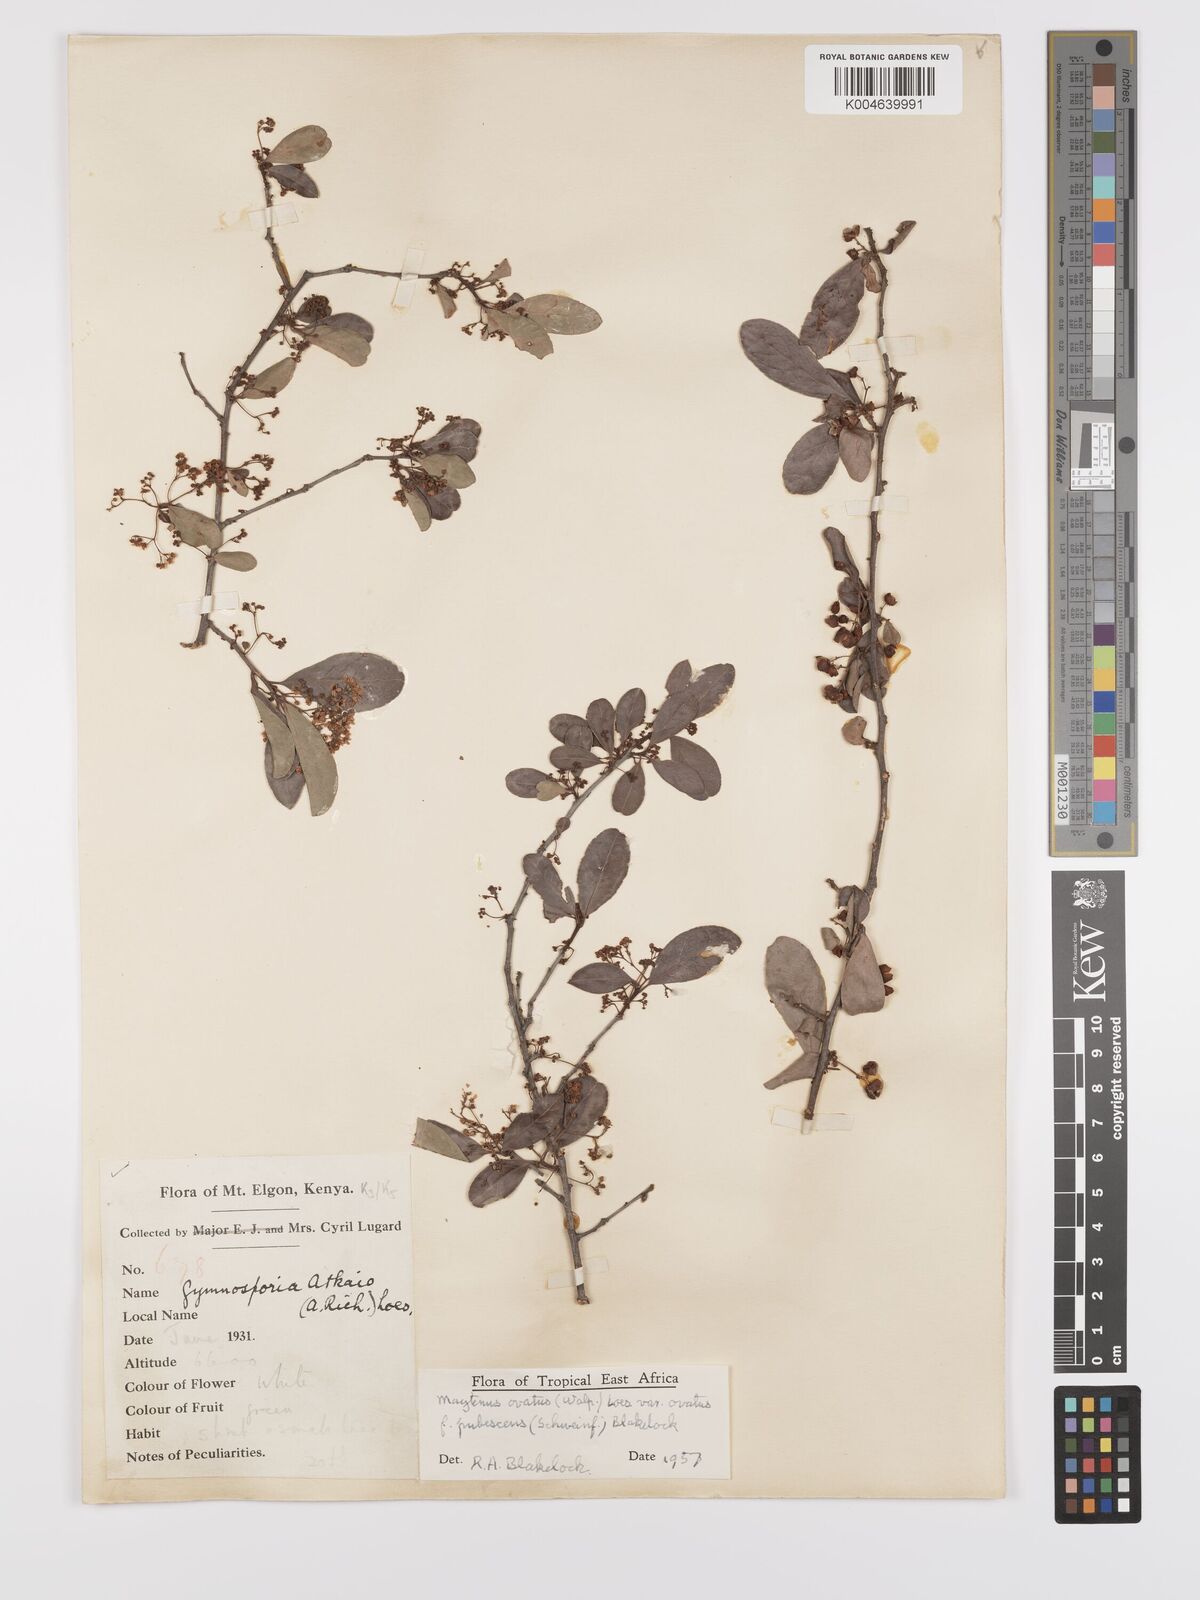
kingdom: Plantae
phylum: Tracheophyta
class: Magnoliopsida
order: Celastrales
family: Celastraceae
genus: Gymnosporia
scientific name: Gymnosporia arbutifolia
